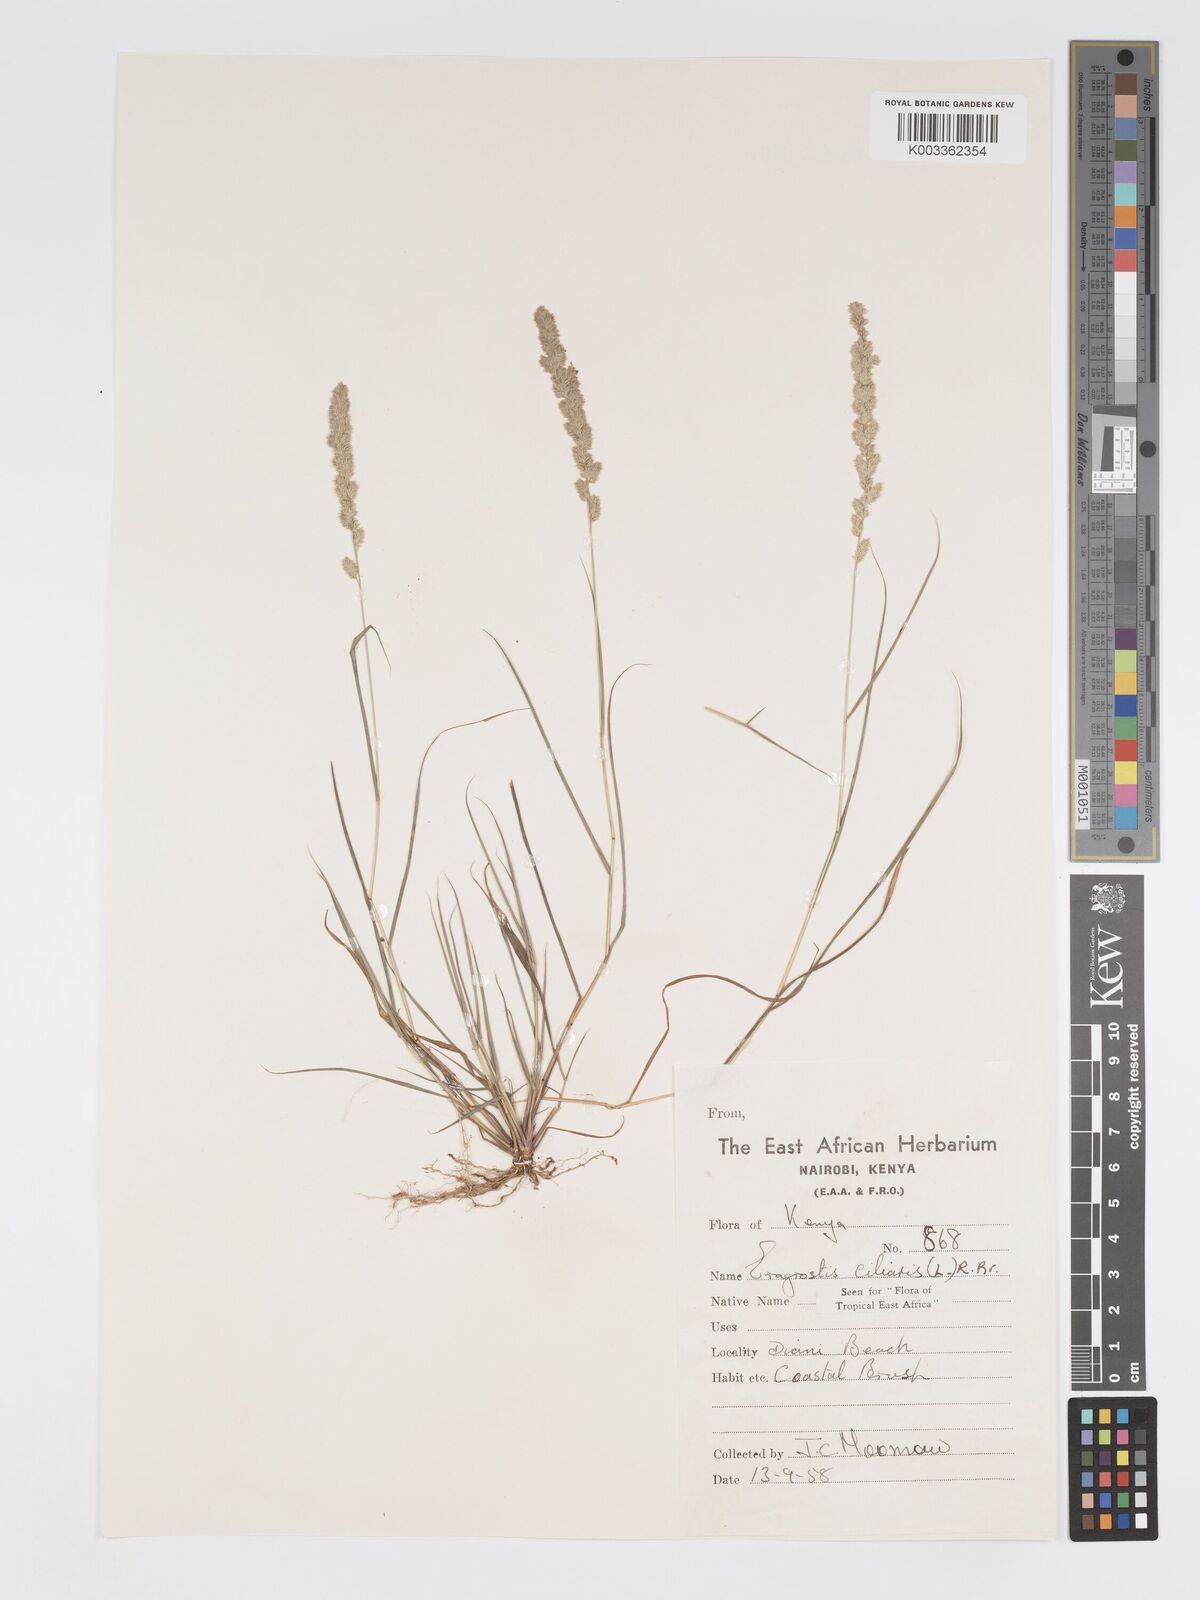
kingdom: Plantae
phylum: Tracheophyta
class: Liliopsida
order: Poales
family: Poaceae
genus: Eragrostis
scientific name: Eragrostis ciliaris
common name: Gophertail lovegrass
